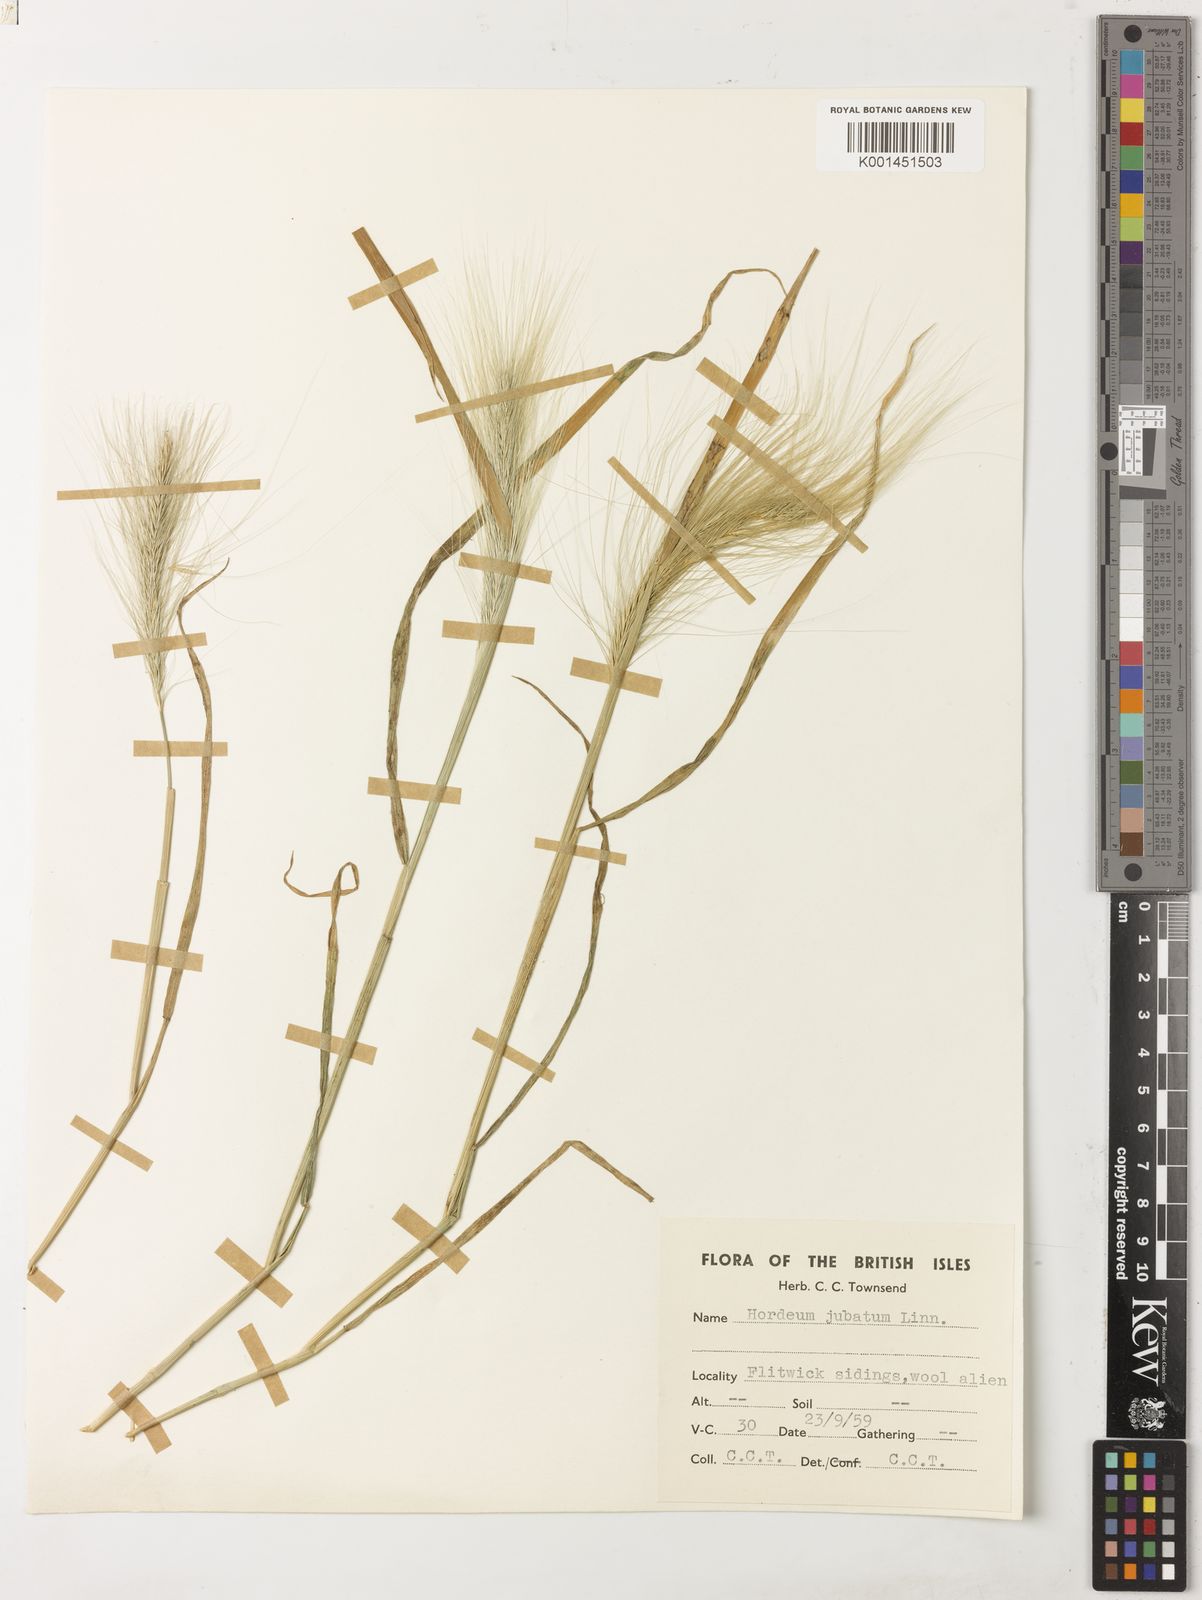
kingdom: Plantae
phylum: Tracheophyta
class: Liliopsida
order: Poales
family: Poaceae
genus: Hordeum
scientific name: Hordeum jubatum
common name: Foxtail barley
